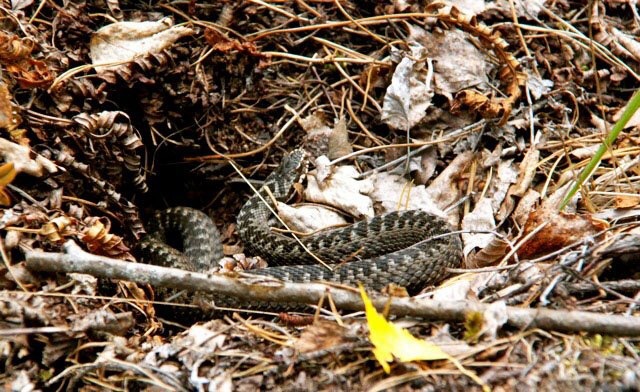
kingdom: Animalia
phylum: Chordata
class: Squamata
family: Viperidae
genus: Vipera
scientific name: Vipera berus
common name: Adder
